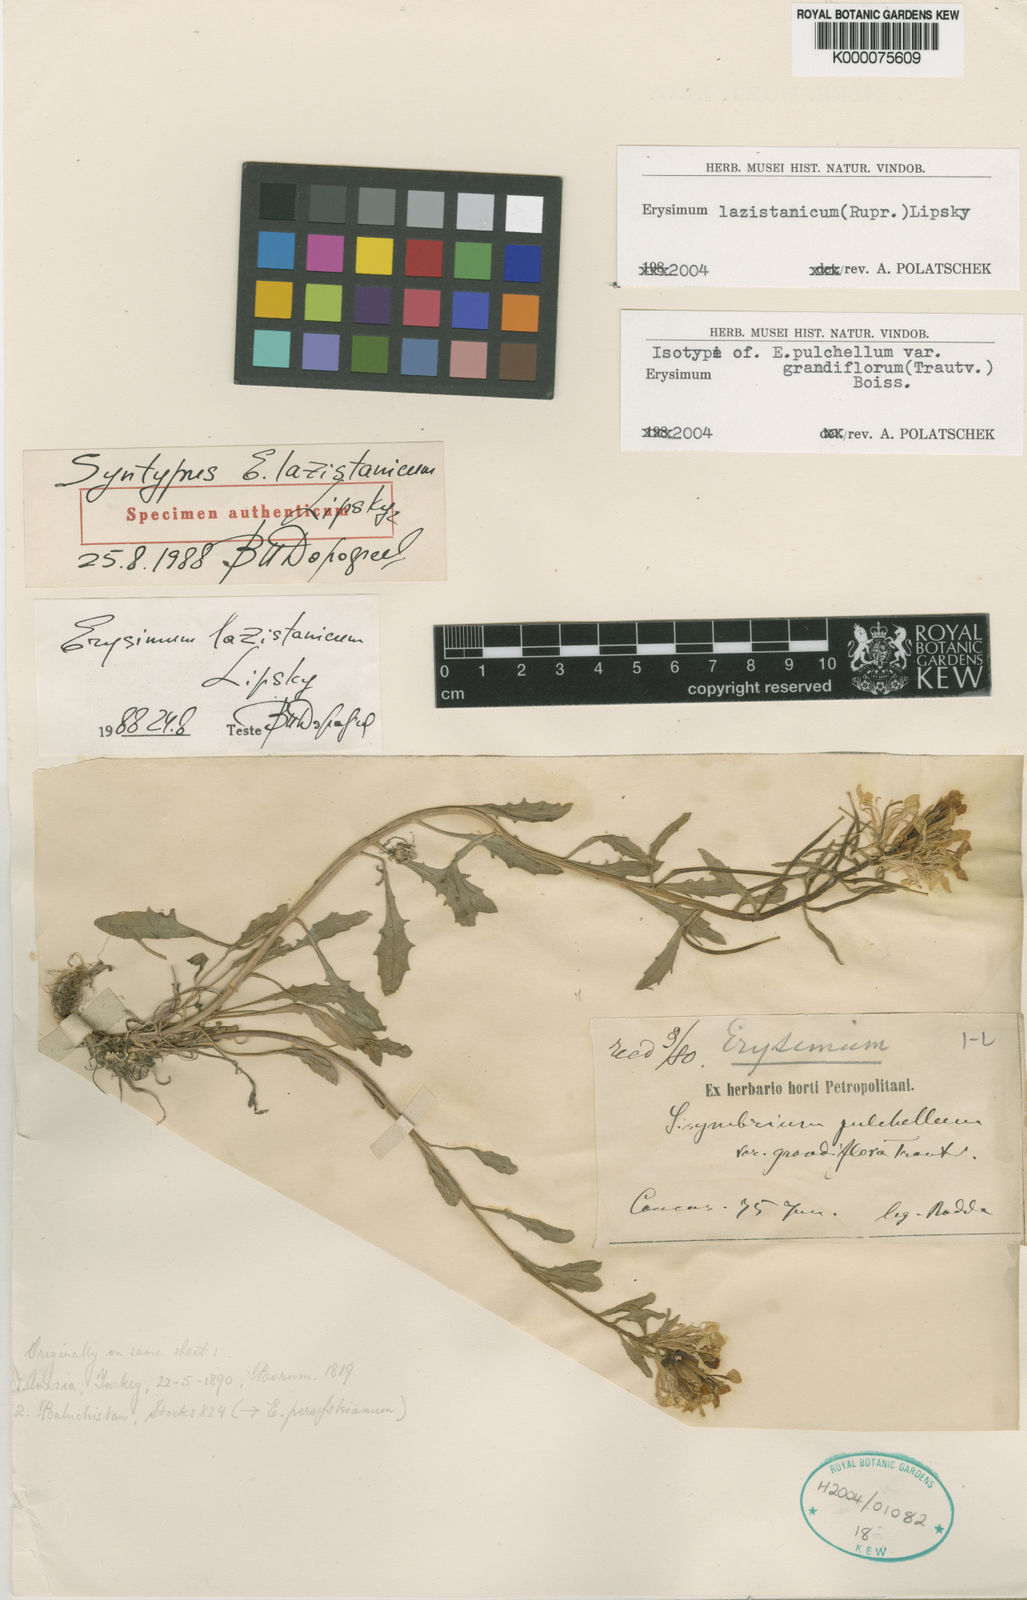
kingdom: Plantae
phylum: Tracheophyta
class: Magnoliopsida
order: Brassicales
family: Brassicaceae
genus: Erysimum
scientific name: Erysimum pulchellum
